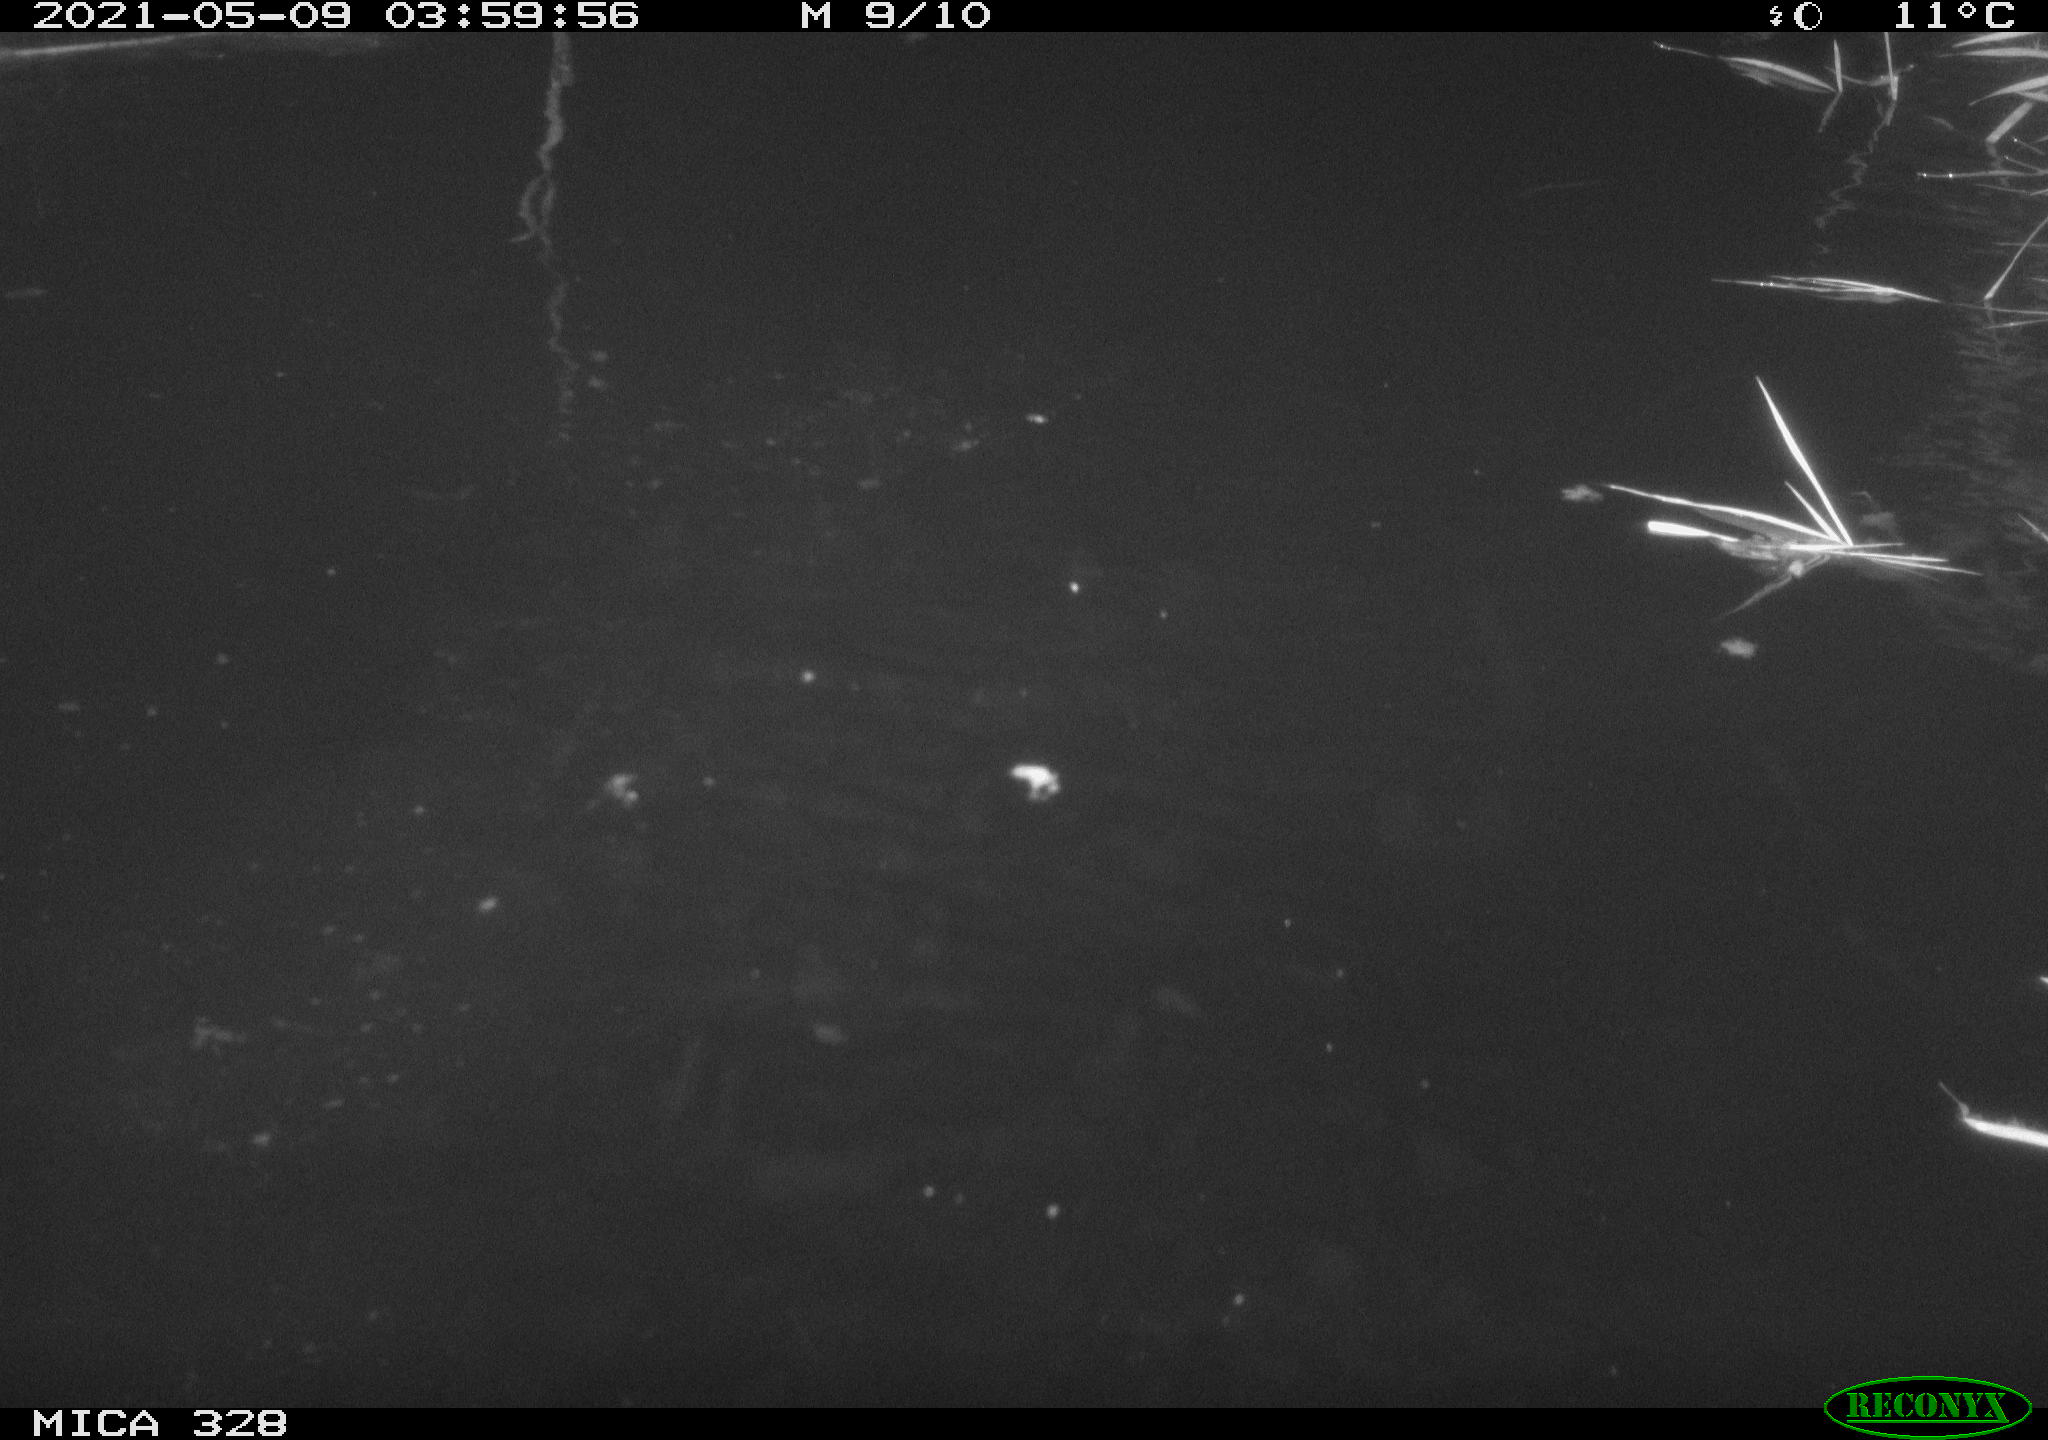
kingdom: Animalia
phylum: Chordata
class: Mammalia
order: Rodentia
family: Cricetidae
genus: Ondatra
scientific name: Ondatra zibethicus
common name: Muskrat
